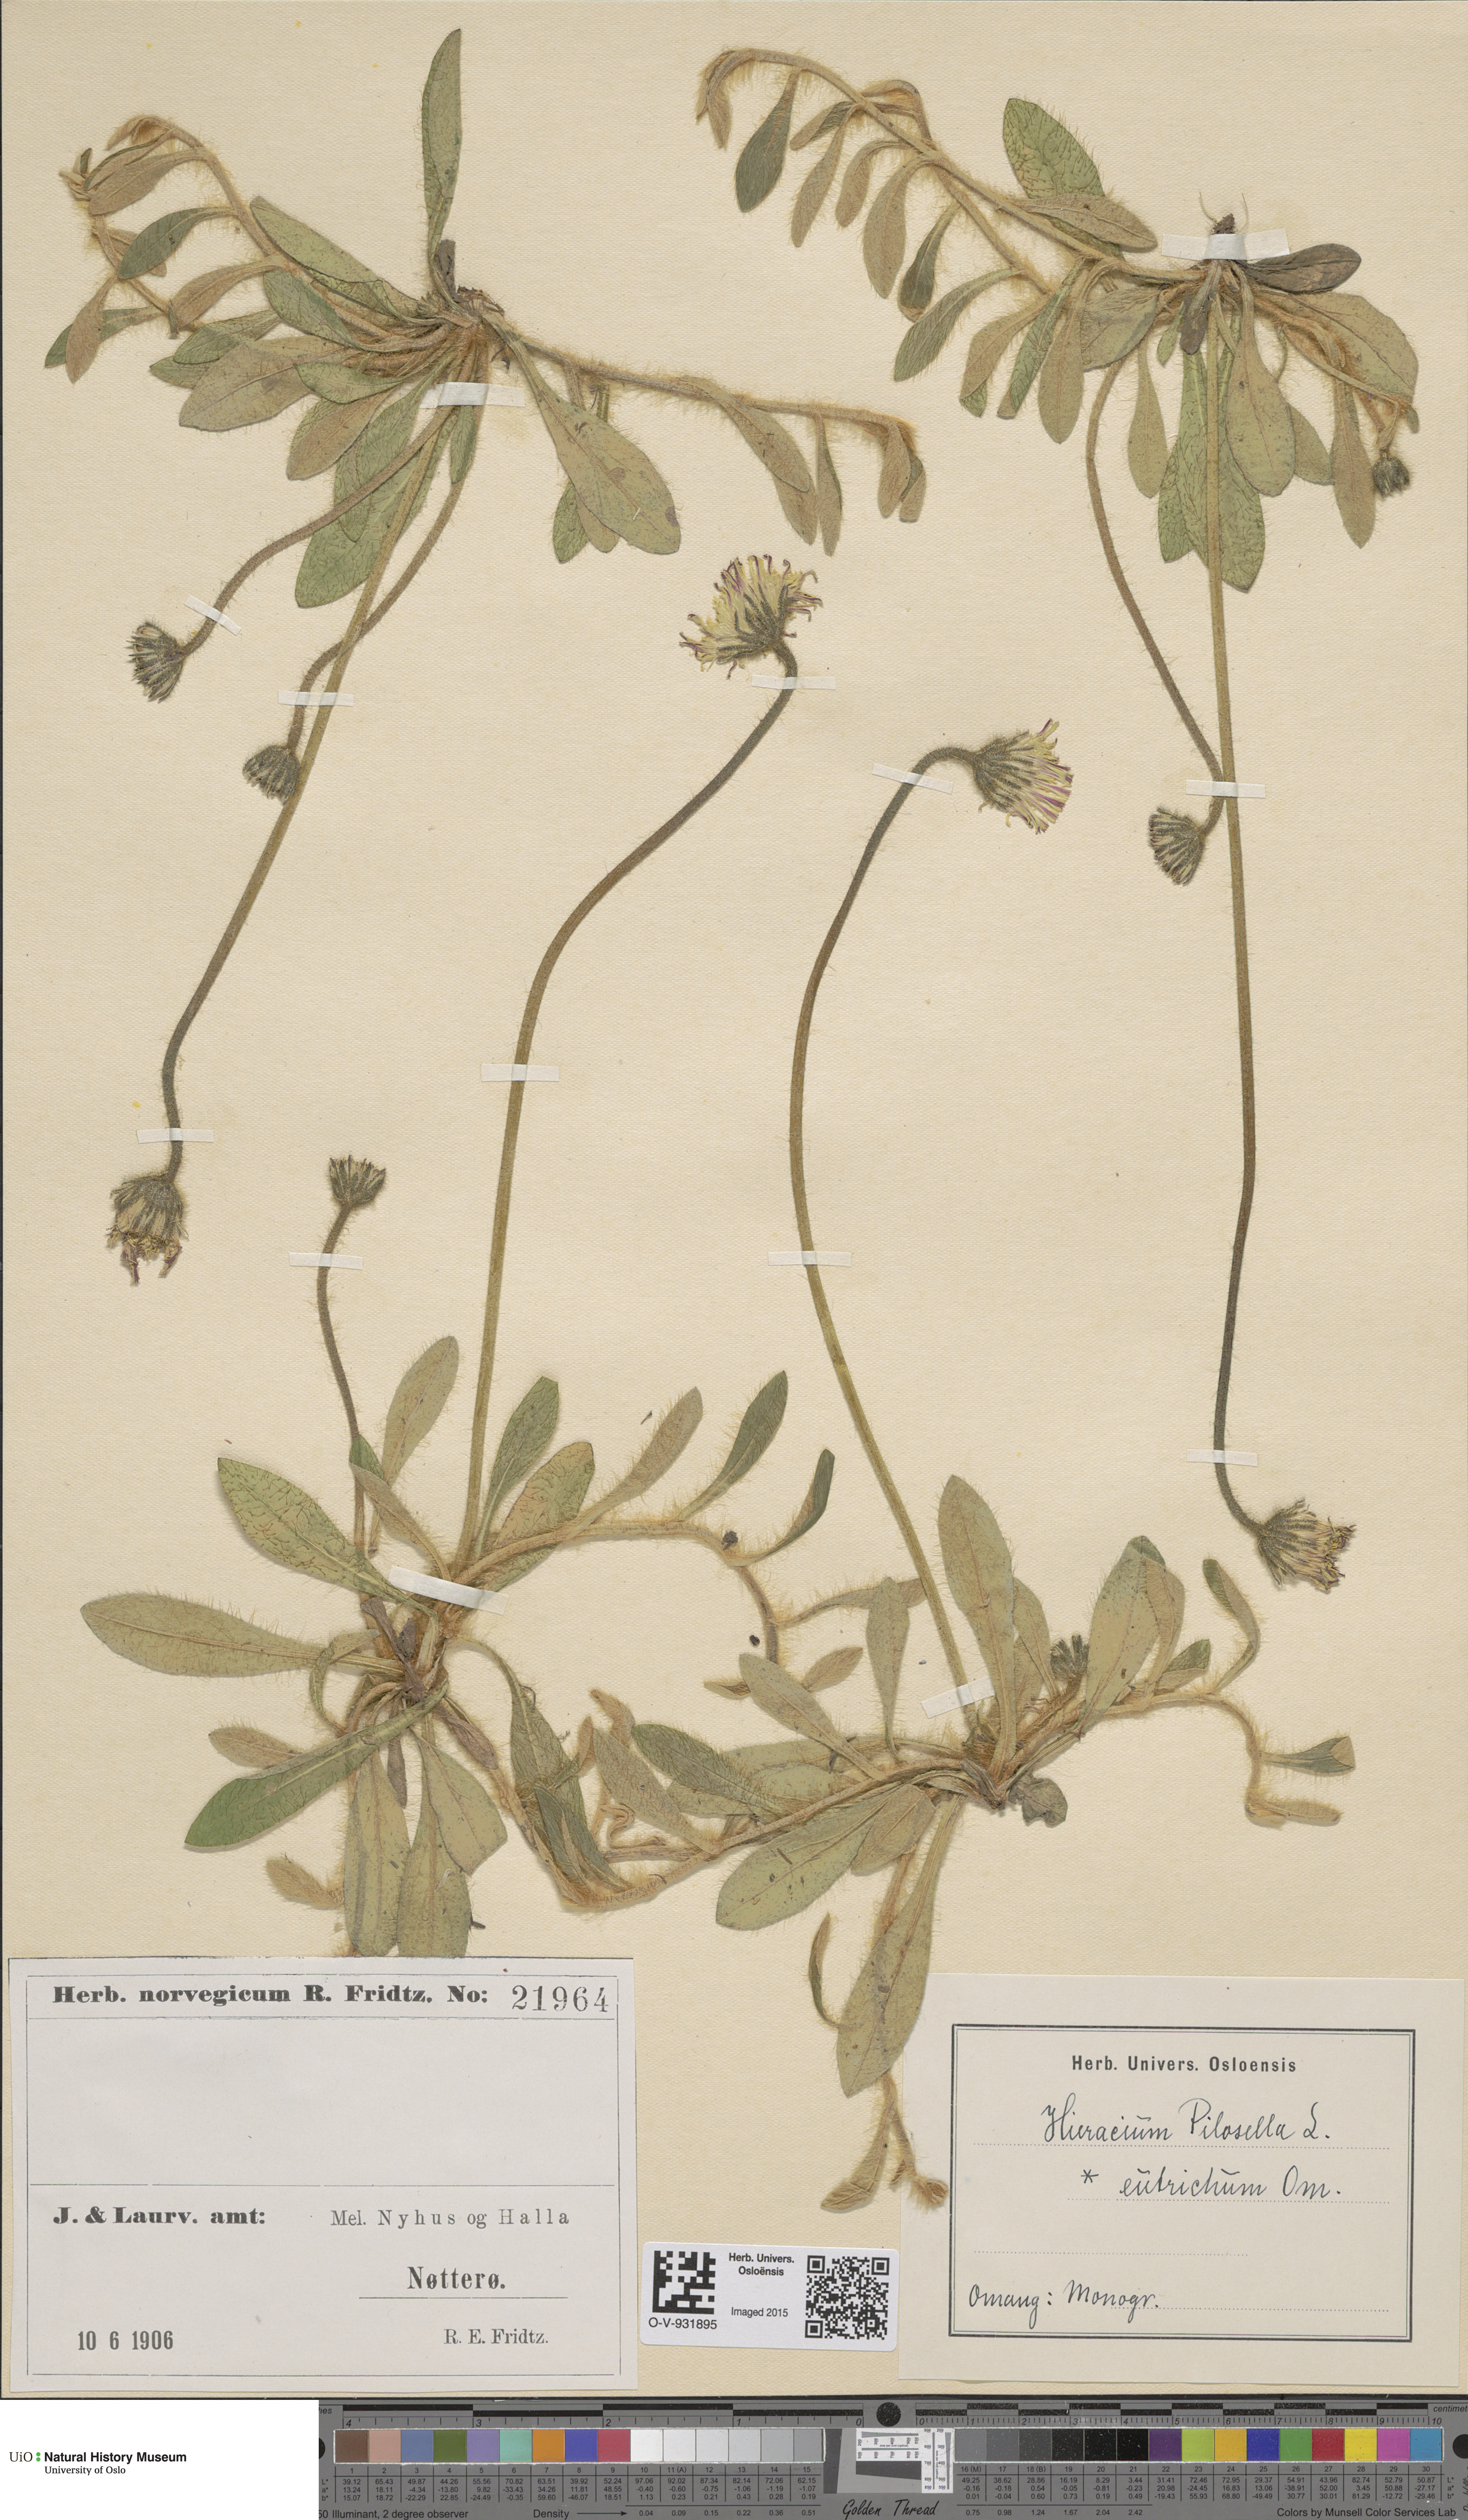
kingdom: Plantae
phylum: Tracheophyta
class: Magnoliopsida
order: Asterales
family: Asteraceae
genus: Pilosella
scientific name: Pilosella officinarum
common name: Mouse-ear hawkweed
